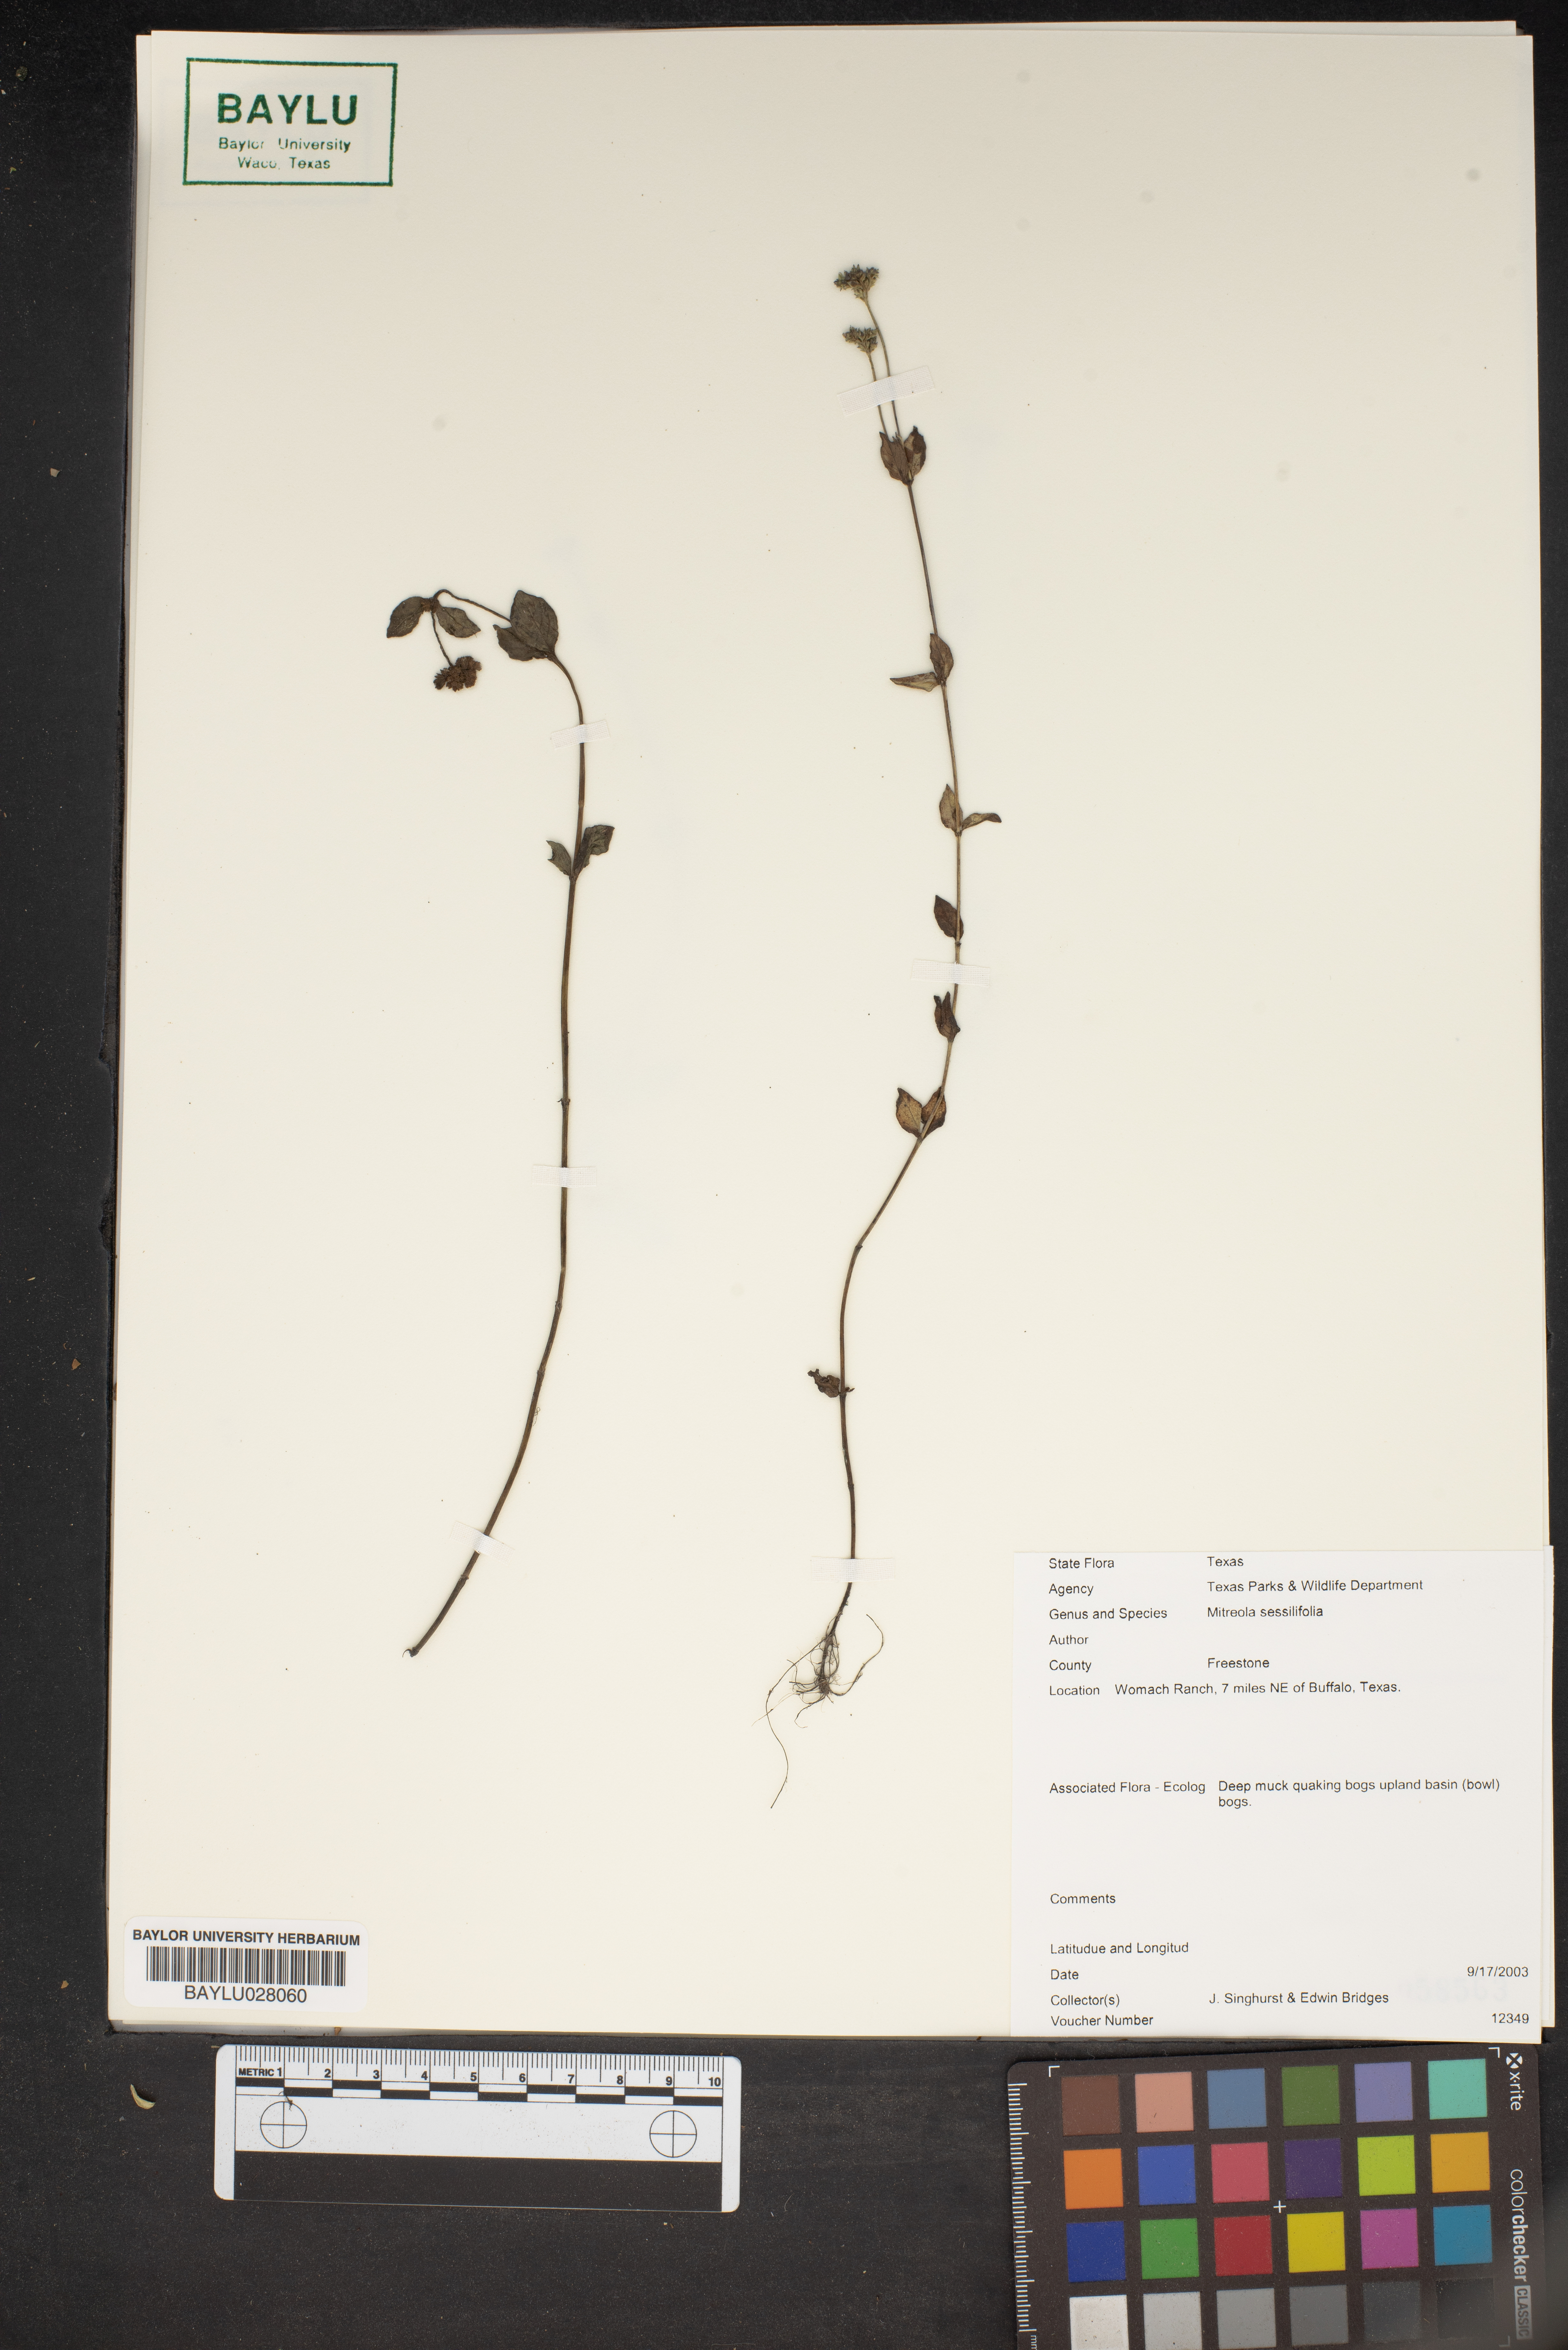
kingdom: Plantae
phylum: Tracheophyta
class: Magnoliopsida
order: Gentianales
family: Loganiaceae
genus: Mitreola
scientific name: Mitreola sessilifolia
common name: Swamp hornpod
